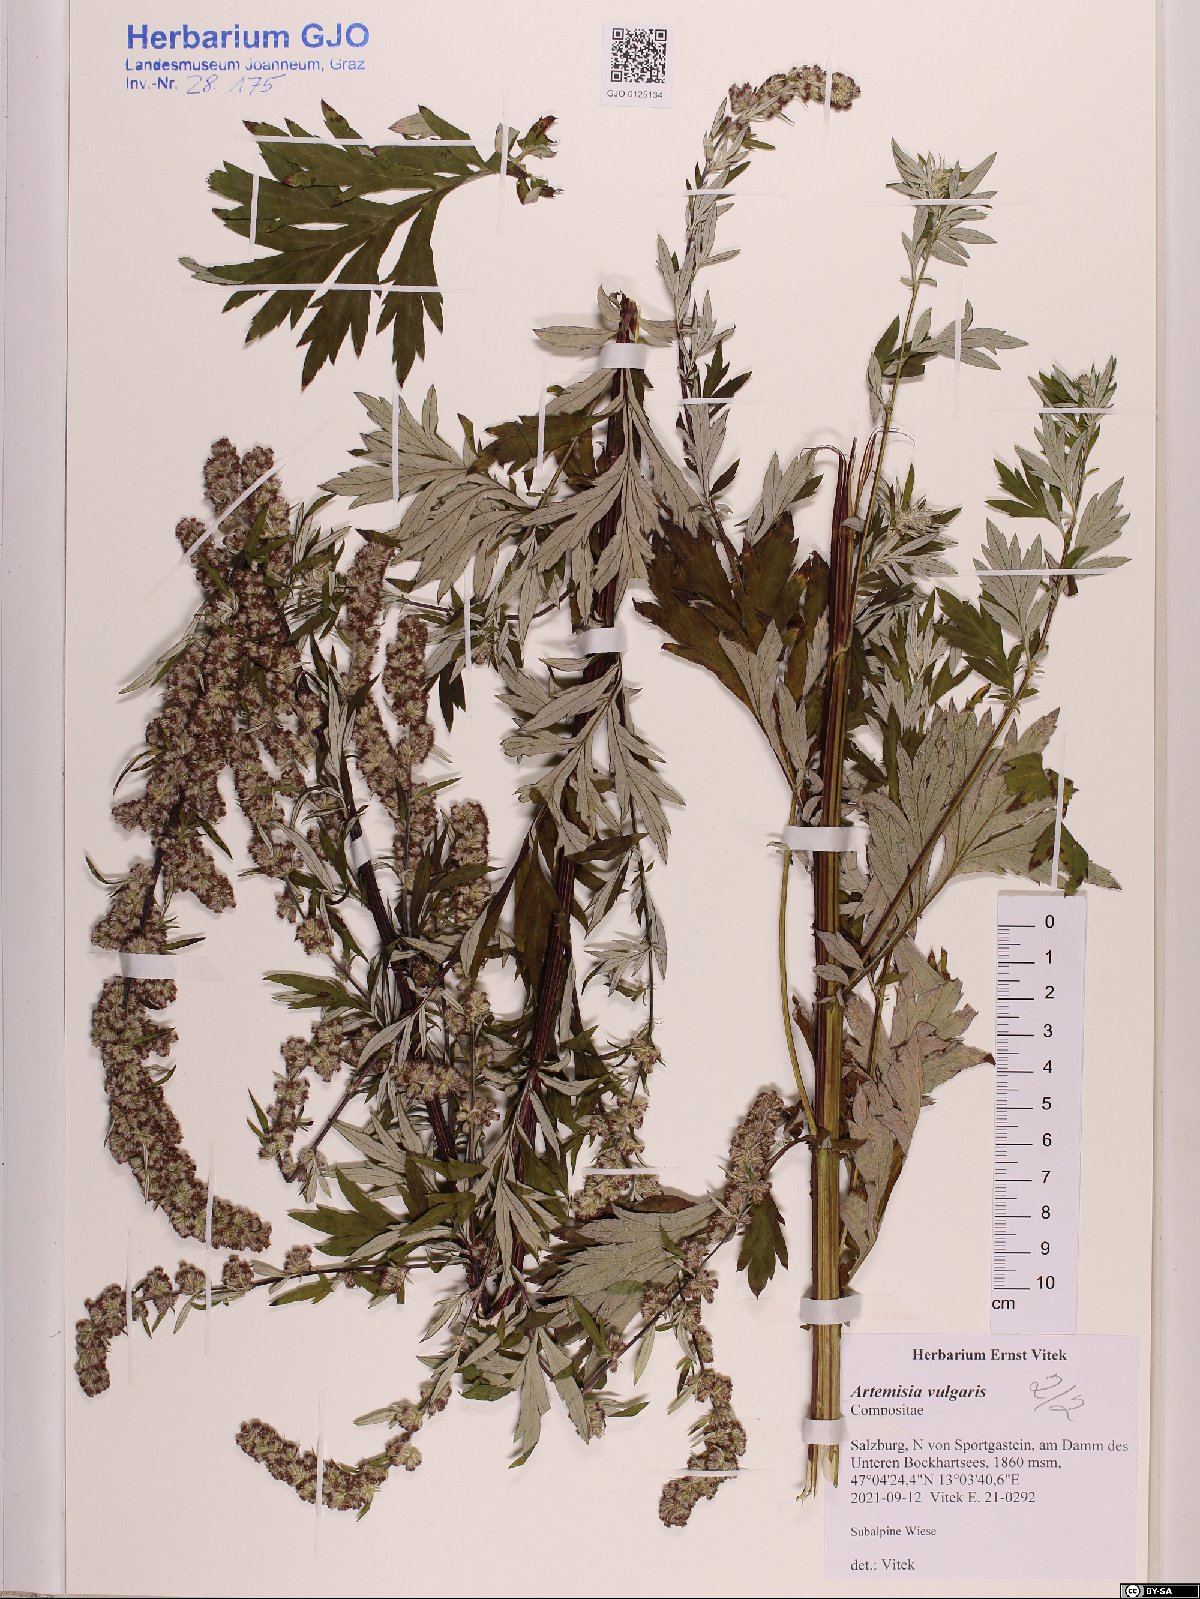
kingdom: Plantae
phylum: Tracheophyta
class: Magnoliopsida
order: Asterales
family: Asteraceae
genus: Artemisia
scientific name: Artemisia vulgaris
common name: Mugwort
